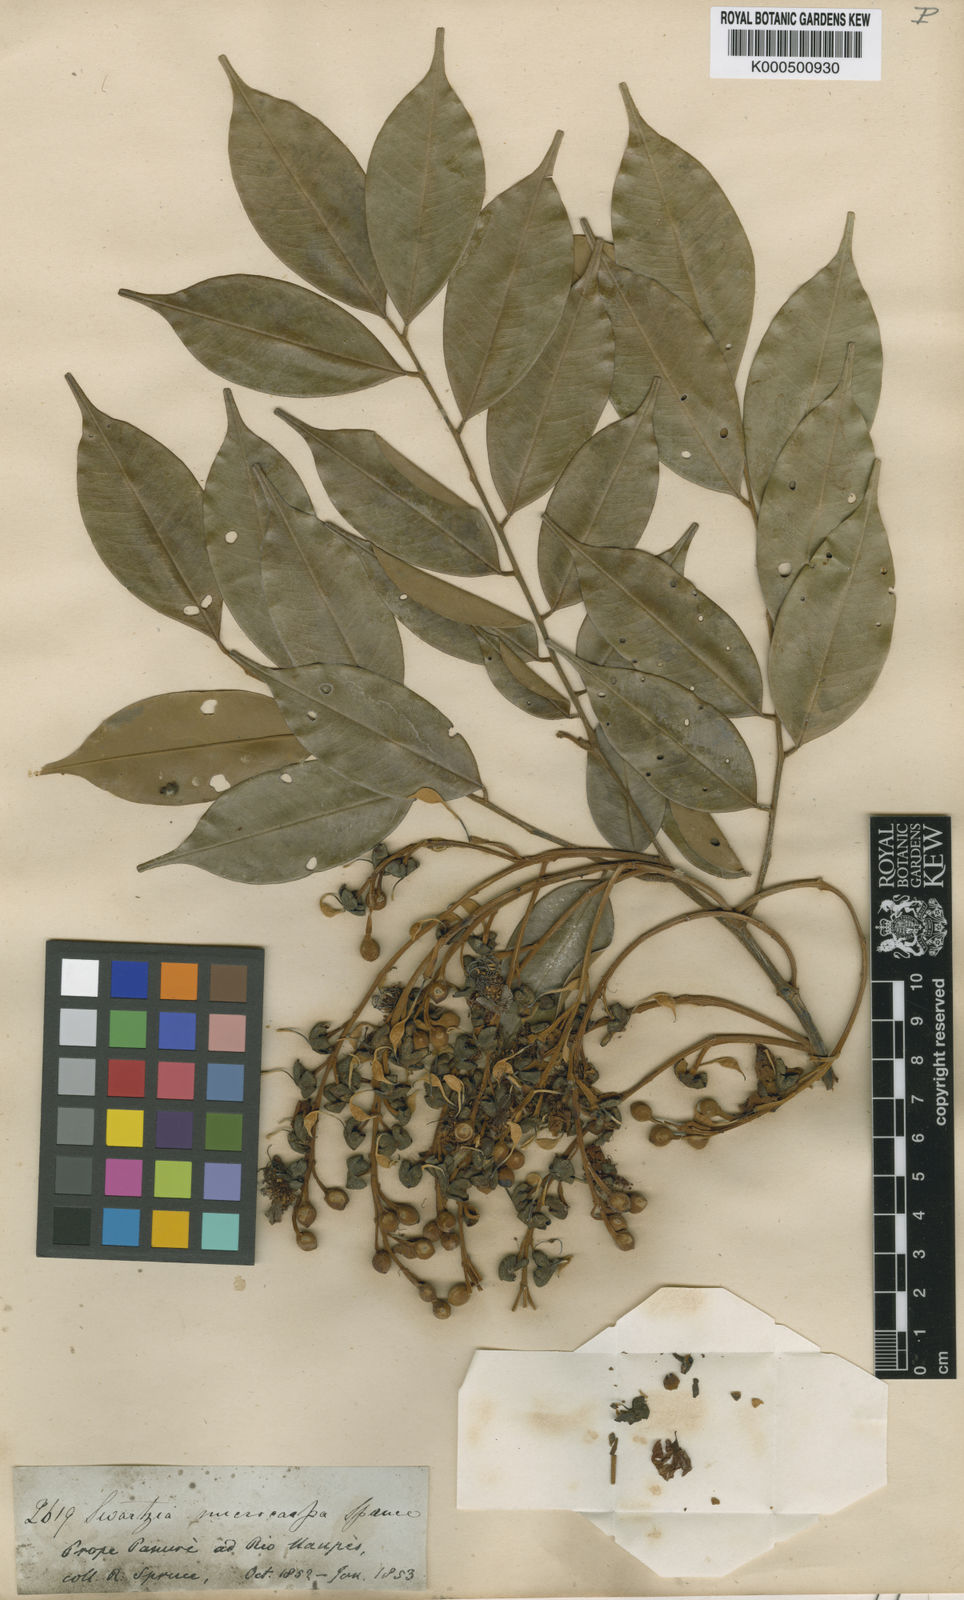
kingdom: Plantae
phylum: Tracheophyta
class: Magnoliopsida
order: Fabales
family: Fabaceae
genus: Swartzia
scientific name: Swartzia microcarpa
